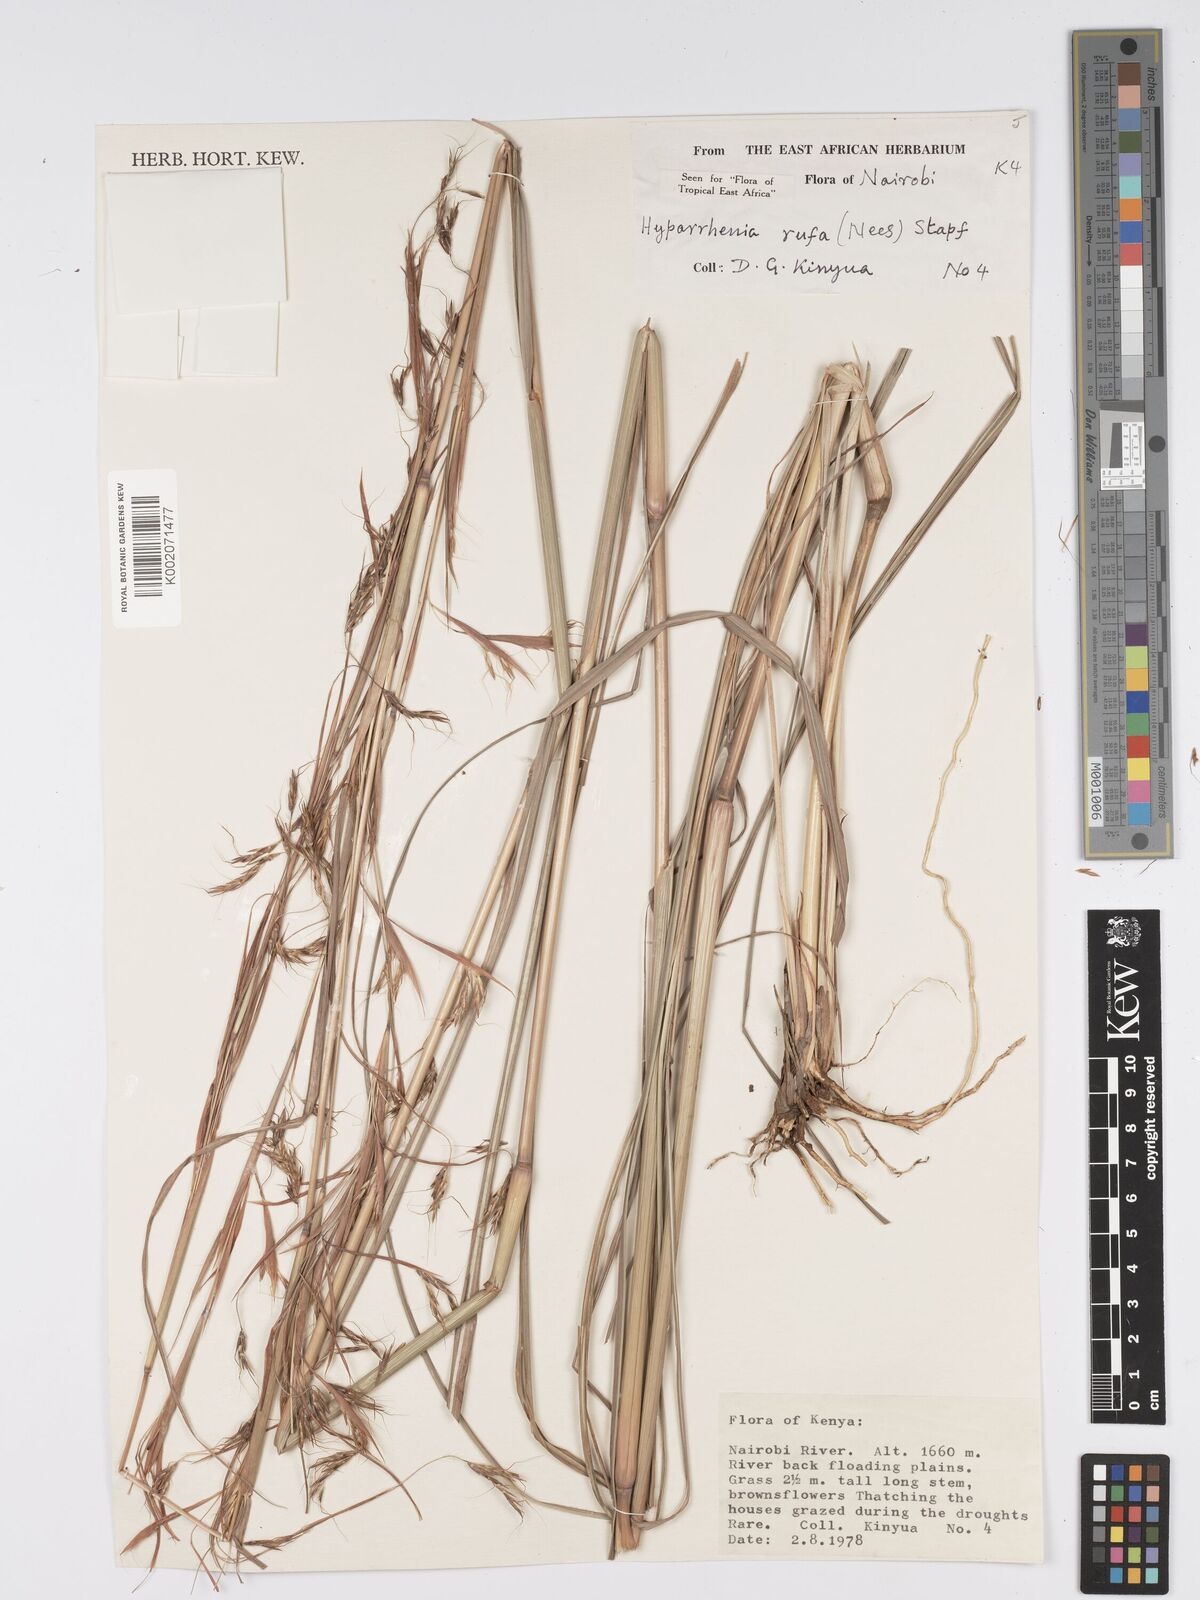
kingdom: Plantae
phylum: Tracheophyta
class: Liliopsida
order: Poales
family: Poaceae
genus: Hyparrhenia
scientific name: Hyparrhenia rufa
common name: Jaraguagrass
